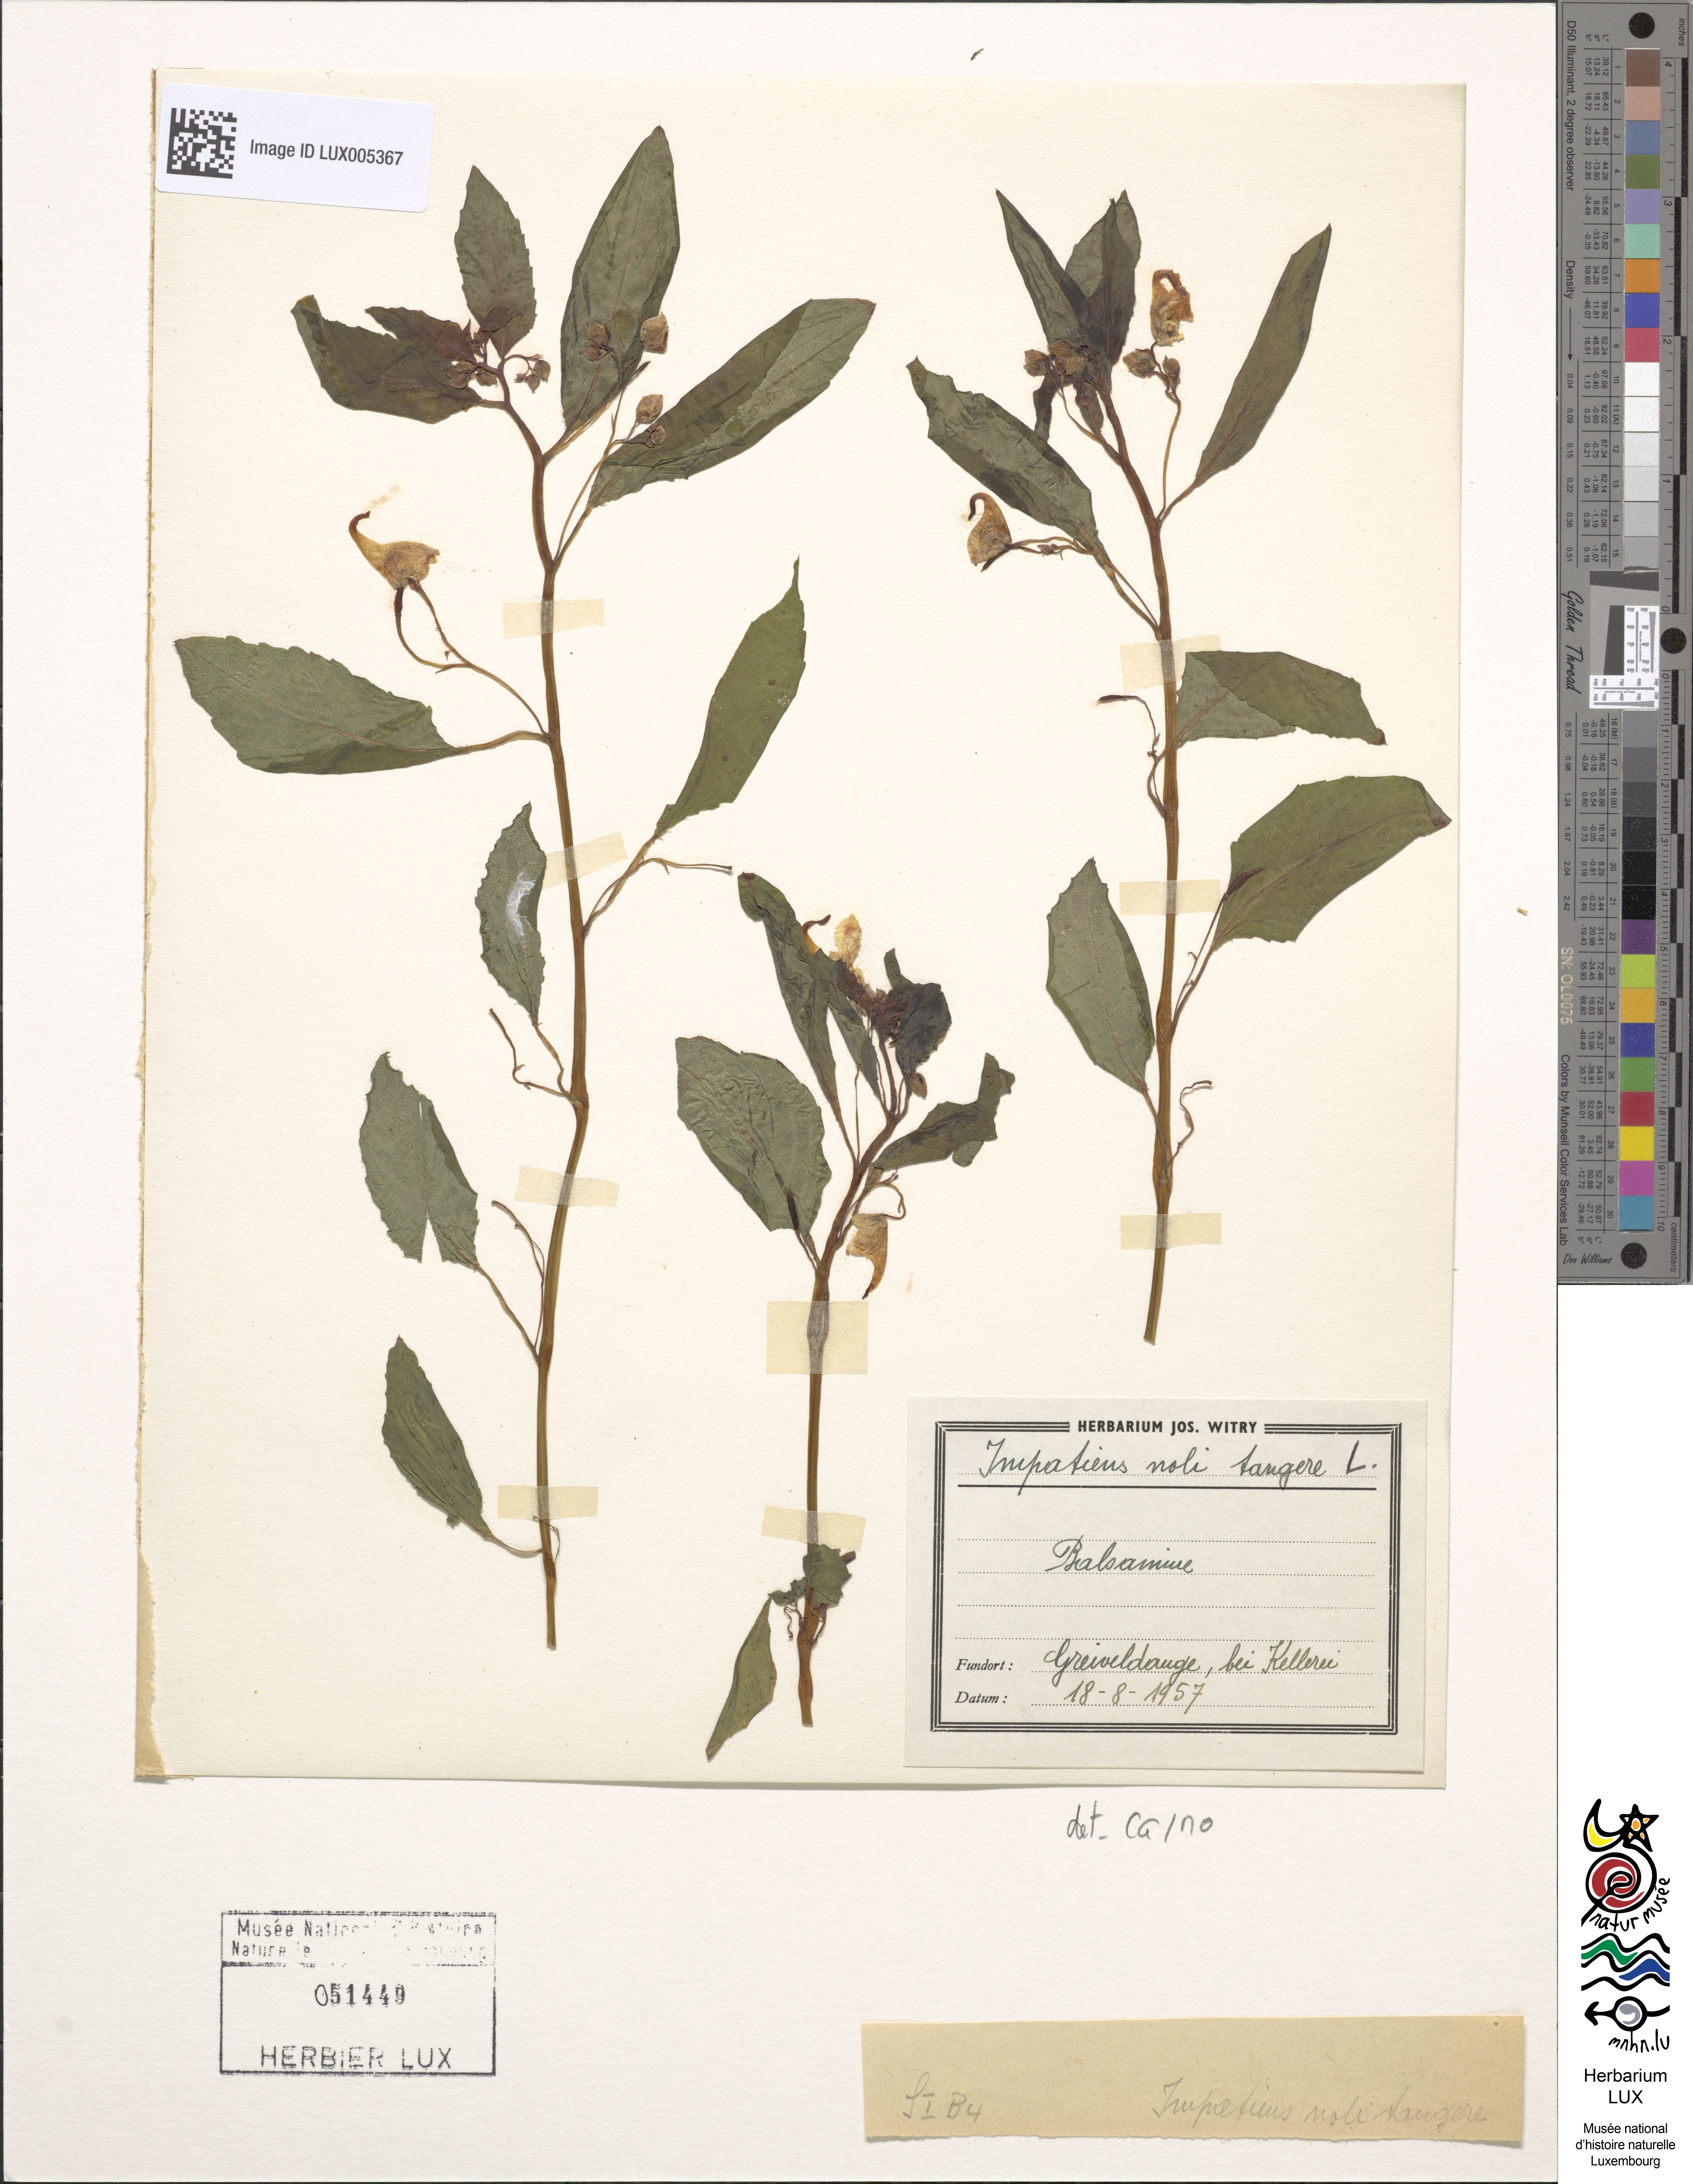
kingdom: Plantae
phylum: Tracheophyta
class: Magnoliopsida
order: Ericales
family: Balsaminaceae
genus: Impatiens
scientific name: Impatiens noli-tangere
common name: Touch-me-not balsam
